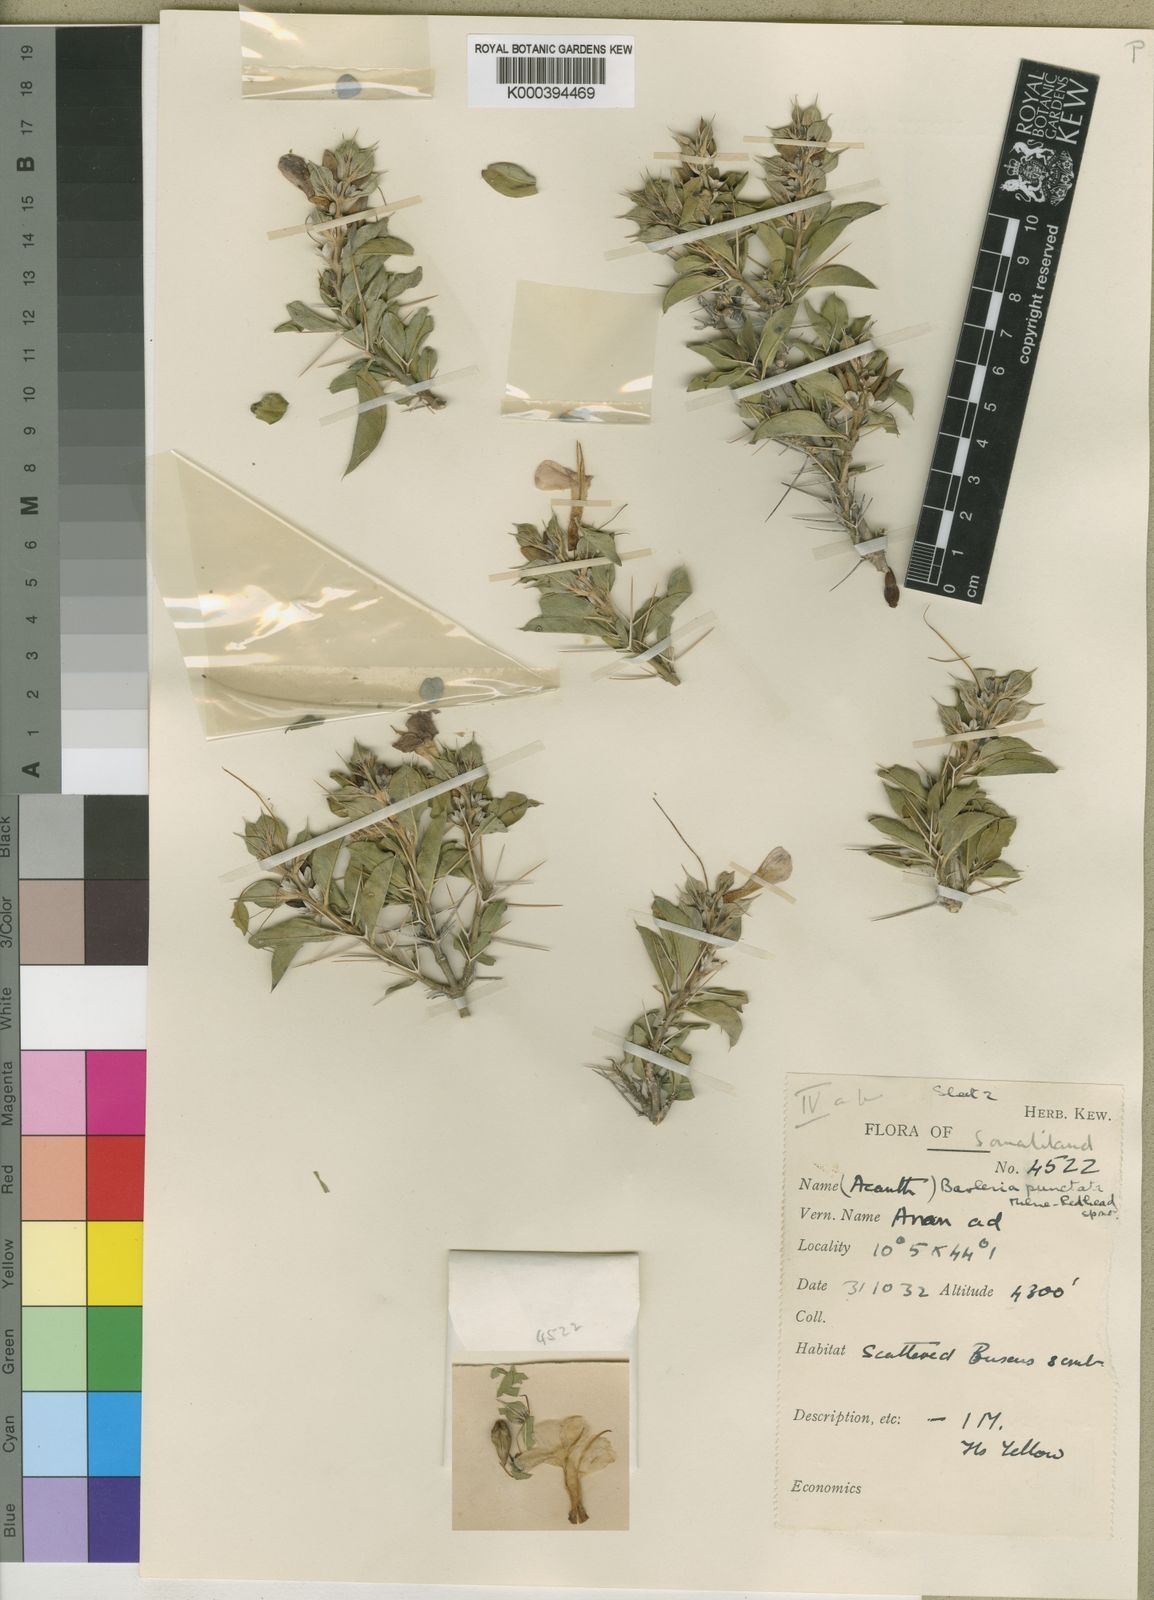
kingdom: Plantae
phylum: Tracheophyta
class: Magnoliopsida
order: Lamiales
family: Acanthaceae
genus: Barleria
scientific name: Barleria punctata
